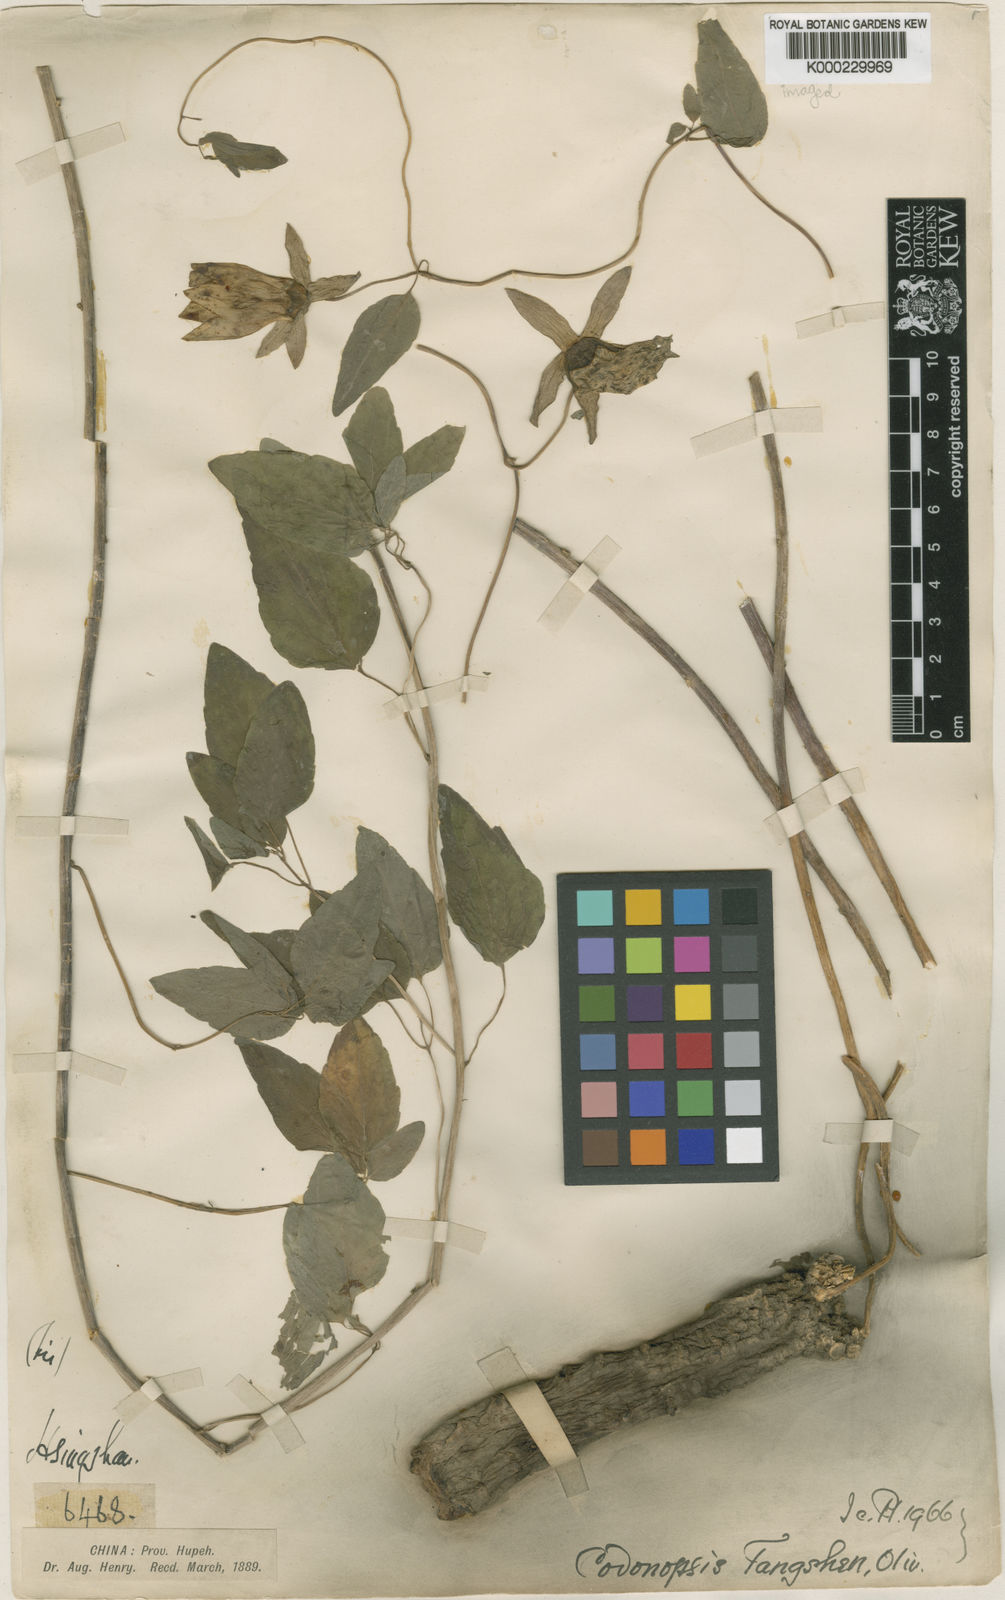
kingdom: Plantae
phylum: Tracheophyta
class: Magnoliopsida
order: Asterales
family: Campanulaceae
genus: Codonopsis
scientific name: Codonopsis pilosula
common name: Bellflower
